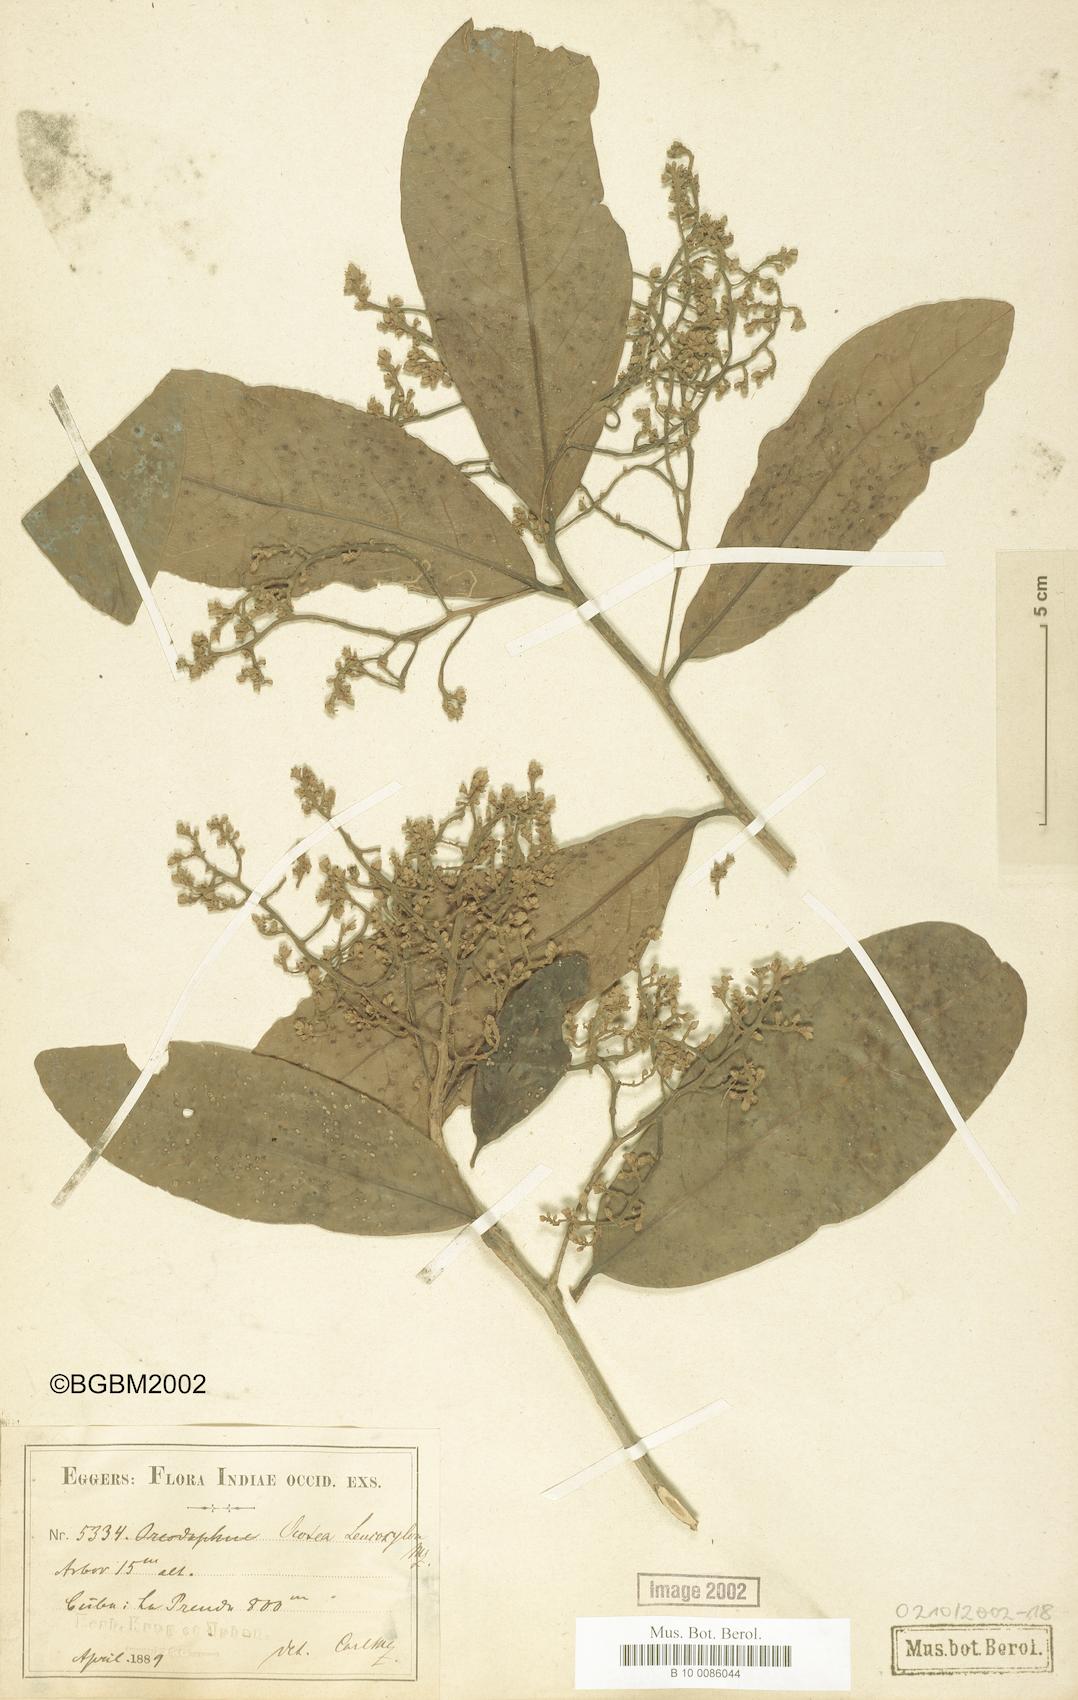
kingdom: Plantae
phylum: Tracheophyta
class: Magnoliopsida
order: Laurales
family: Lauraceae
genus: Ocotea
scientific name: Ocotea leucoxylon
